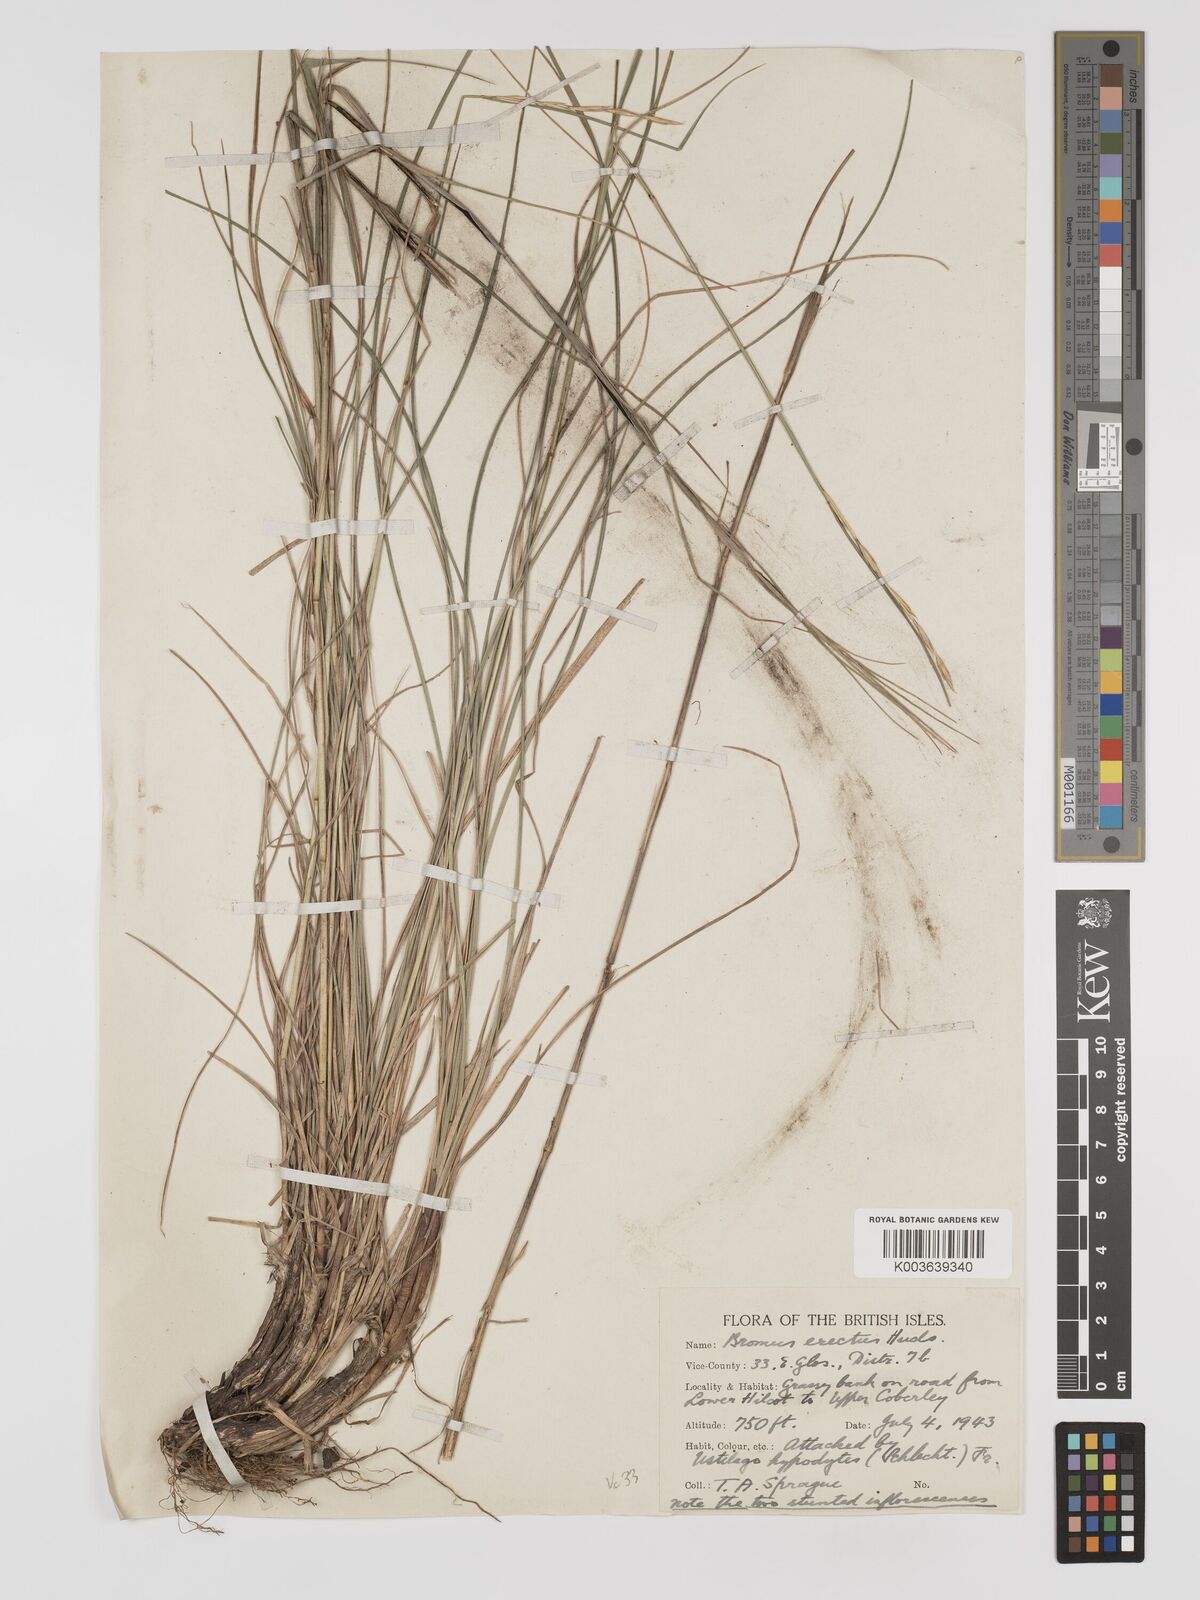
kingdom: Plantae
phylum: Tracheophyta
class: Liliopsida
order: Poales
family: Poaceae
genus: Bromus
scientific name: Bromus erectus
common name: Erect brome
